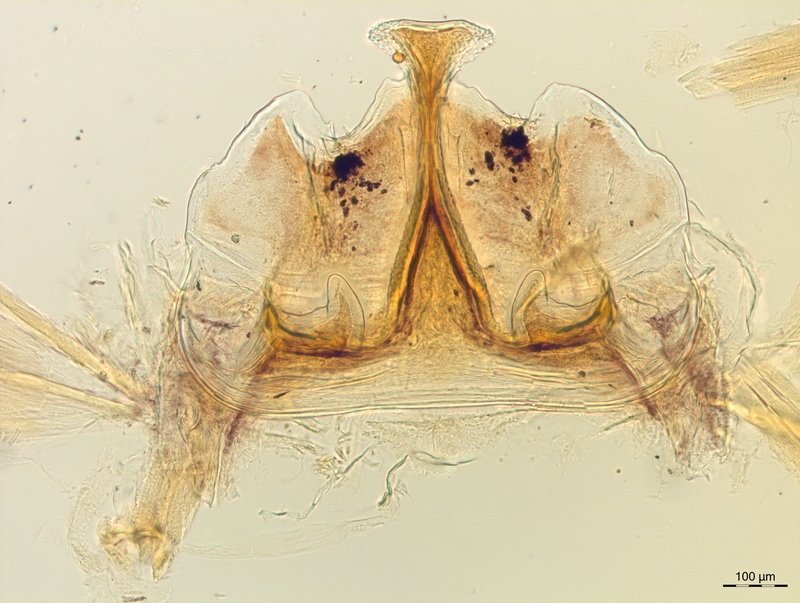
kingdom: Animalia
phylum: Arthropoda
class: Diplopoda
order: Chordeumatida
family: Craspedosomatidae
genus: Craspedosoma
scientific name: Craspedosoma slavum
